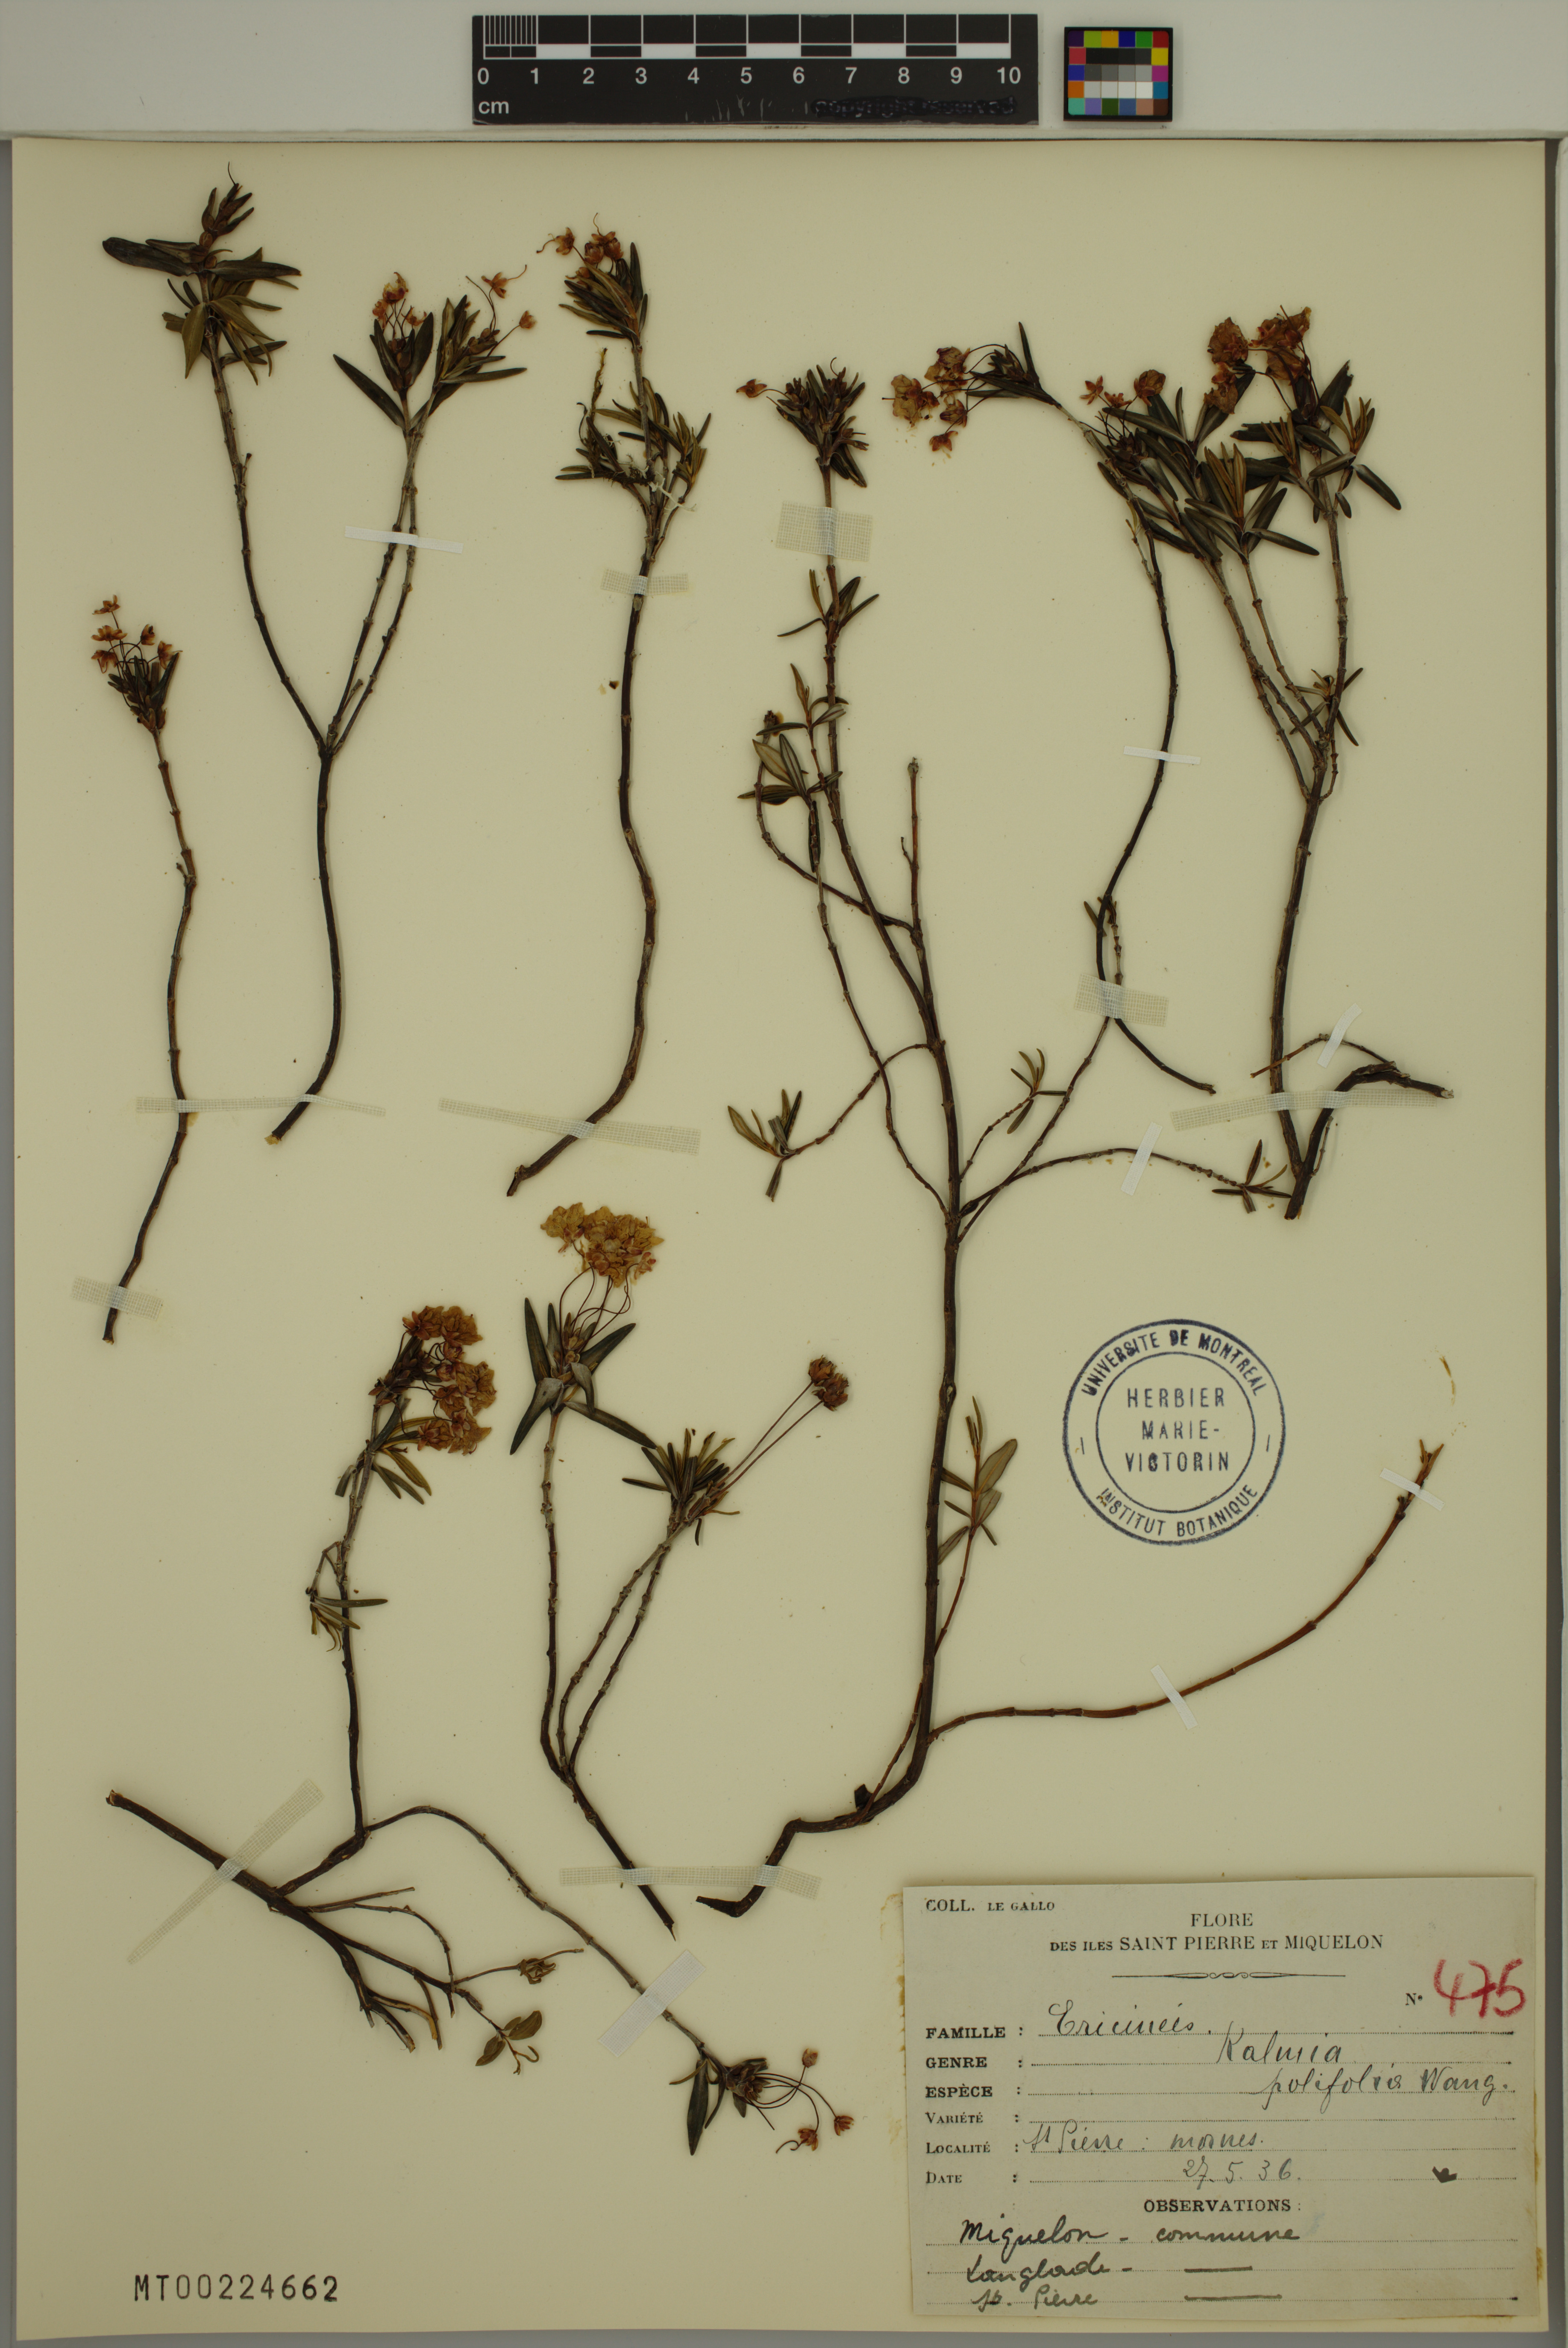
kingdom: Plantae
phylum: Tracheophyta
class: Magnoliopsida
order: Ericales
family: Ericaceae
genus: Kalmia
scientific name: Kalmia polifolia
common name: Bog-laurel
